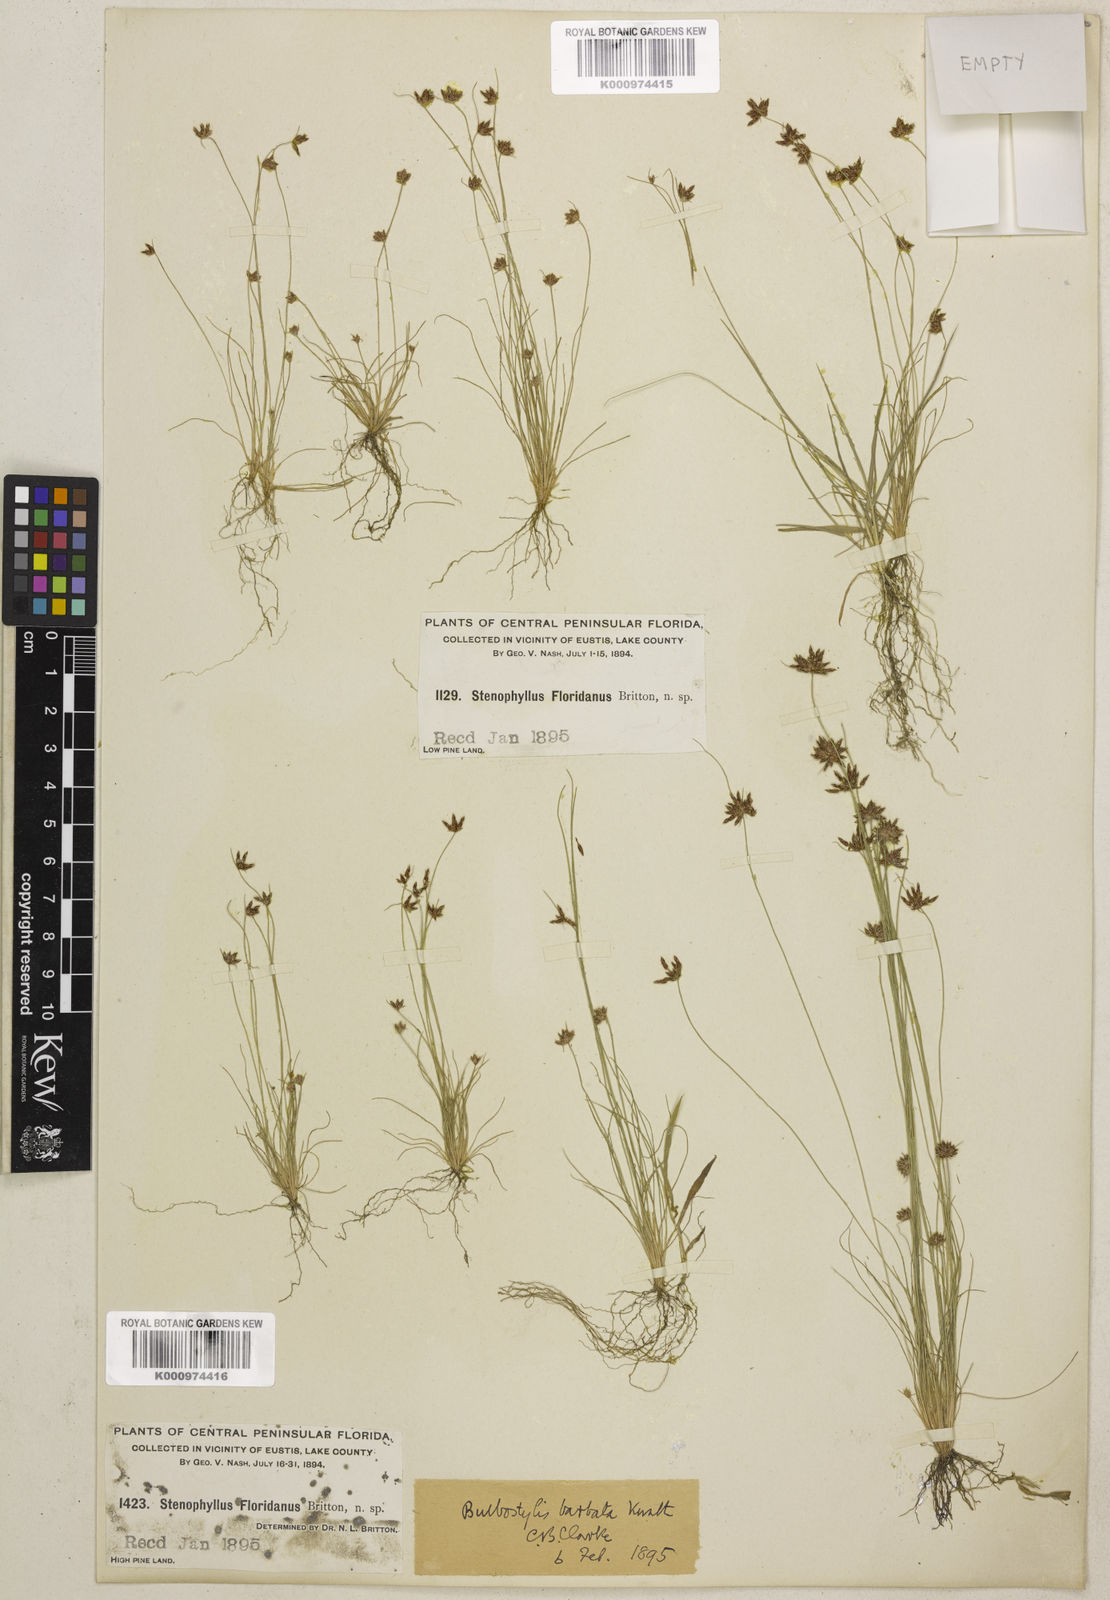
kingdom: Plantae
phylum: Tracheophyta
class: Liliopsida
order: Poales
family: Cyperaceae
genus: Bulbostylis
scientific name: Bulbostylis rarissima
